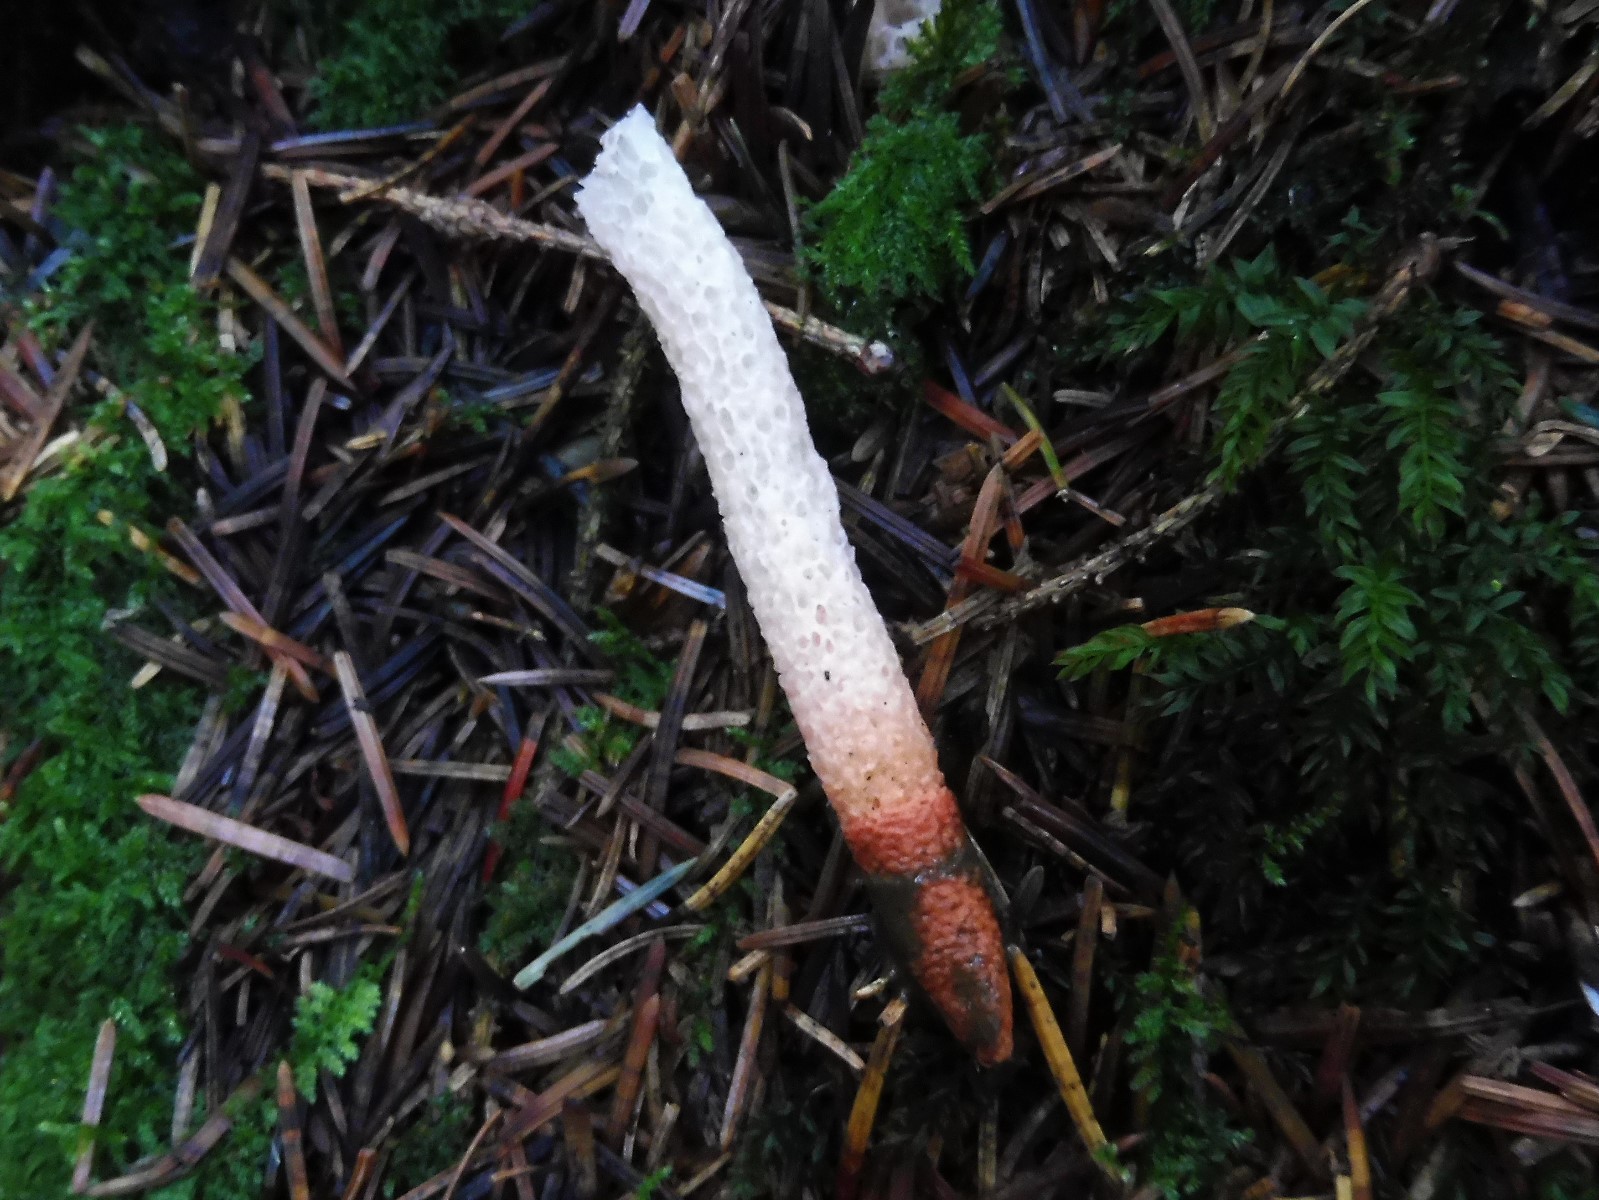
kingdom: Fungi
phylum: Basidiomycota
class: Agaricomycetes
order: Phallales
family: Phallaceae
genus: Mutinus
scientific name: Mutinus caninus
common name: hunde-stinksvamp
